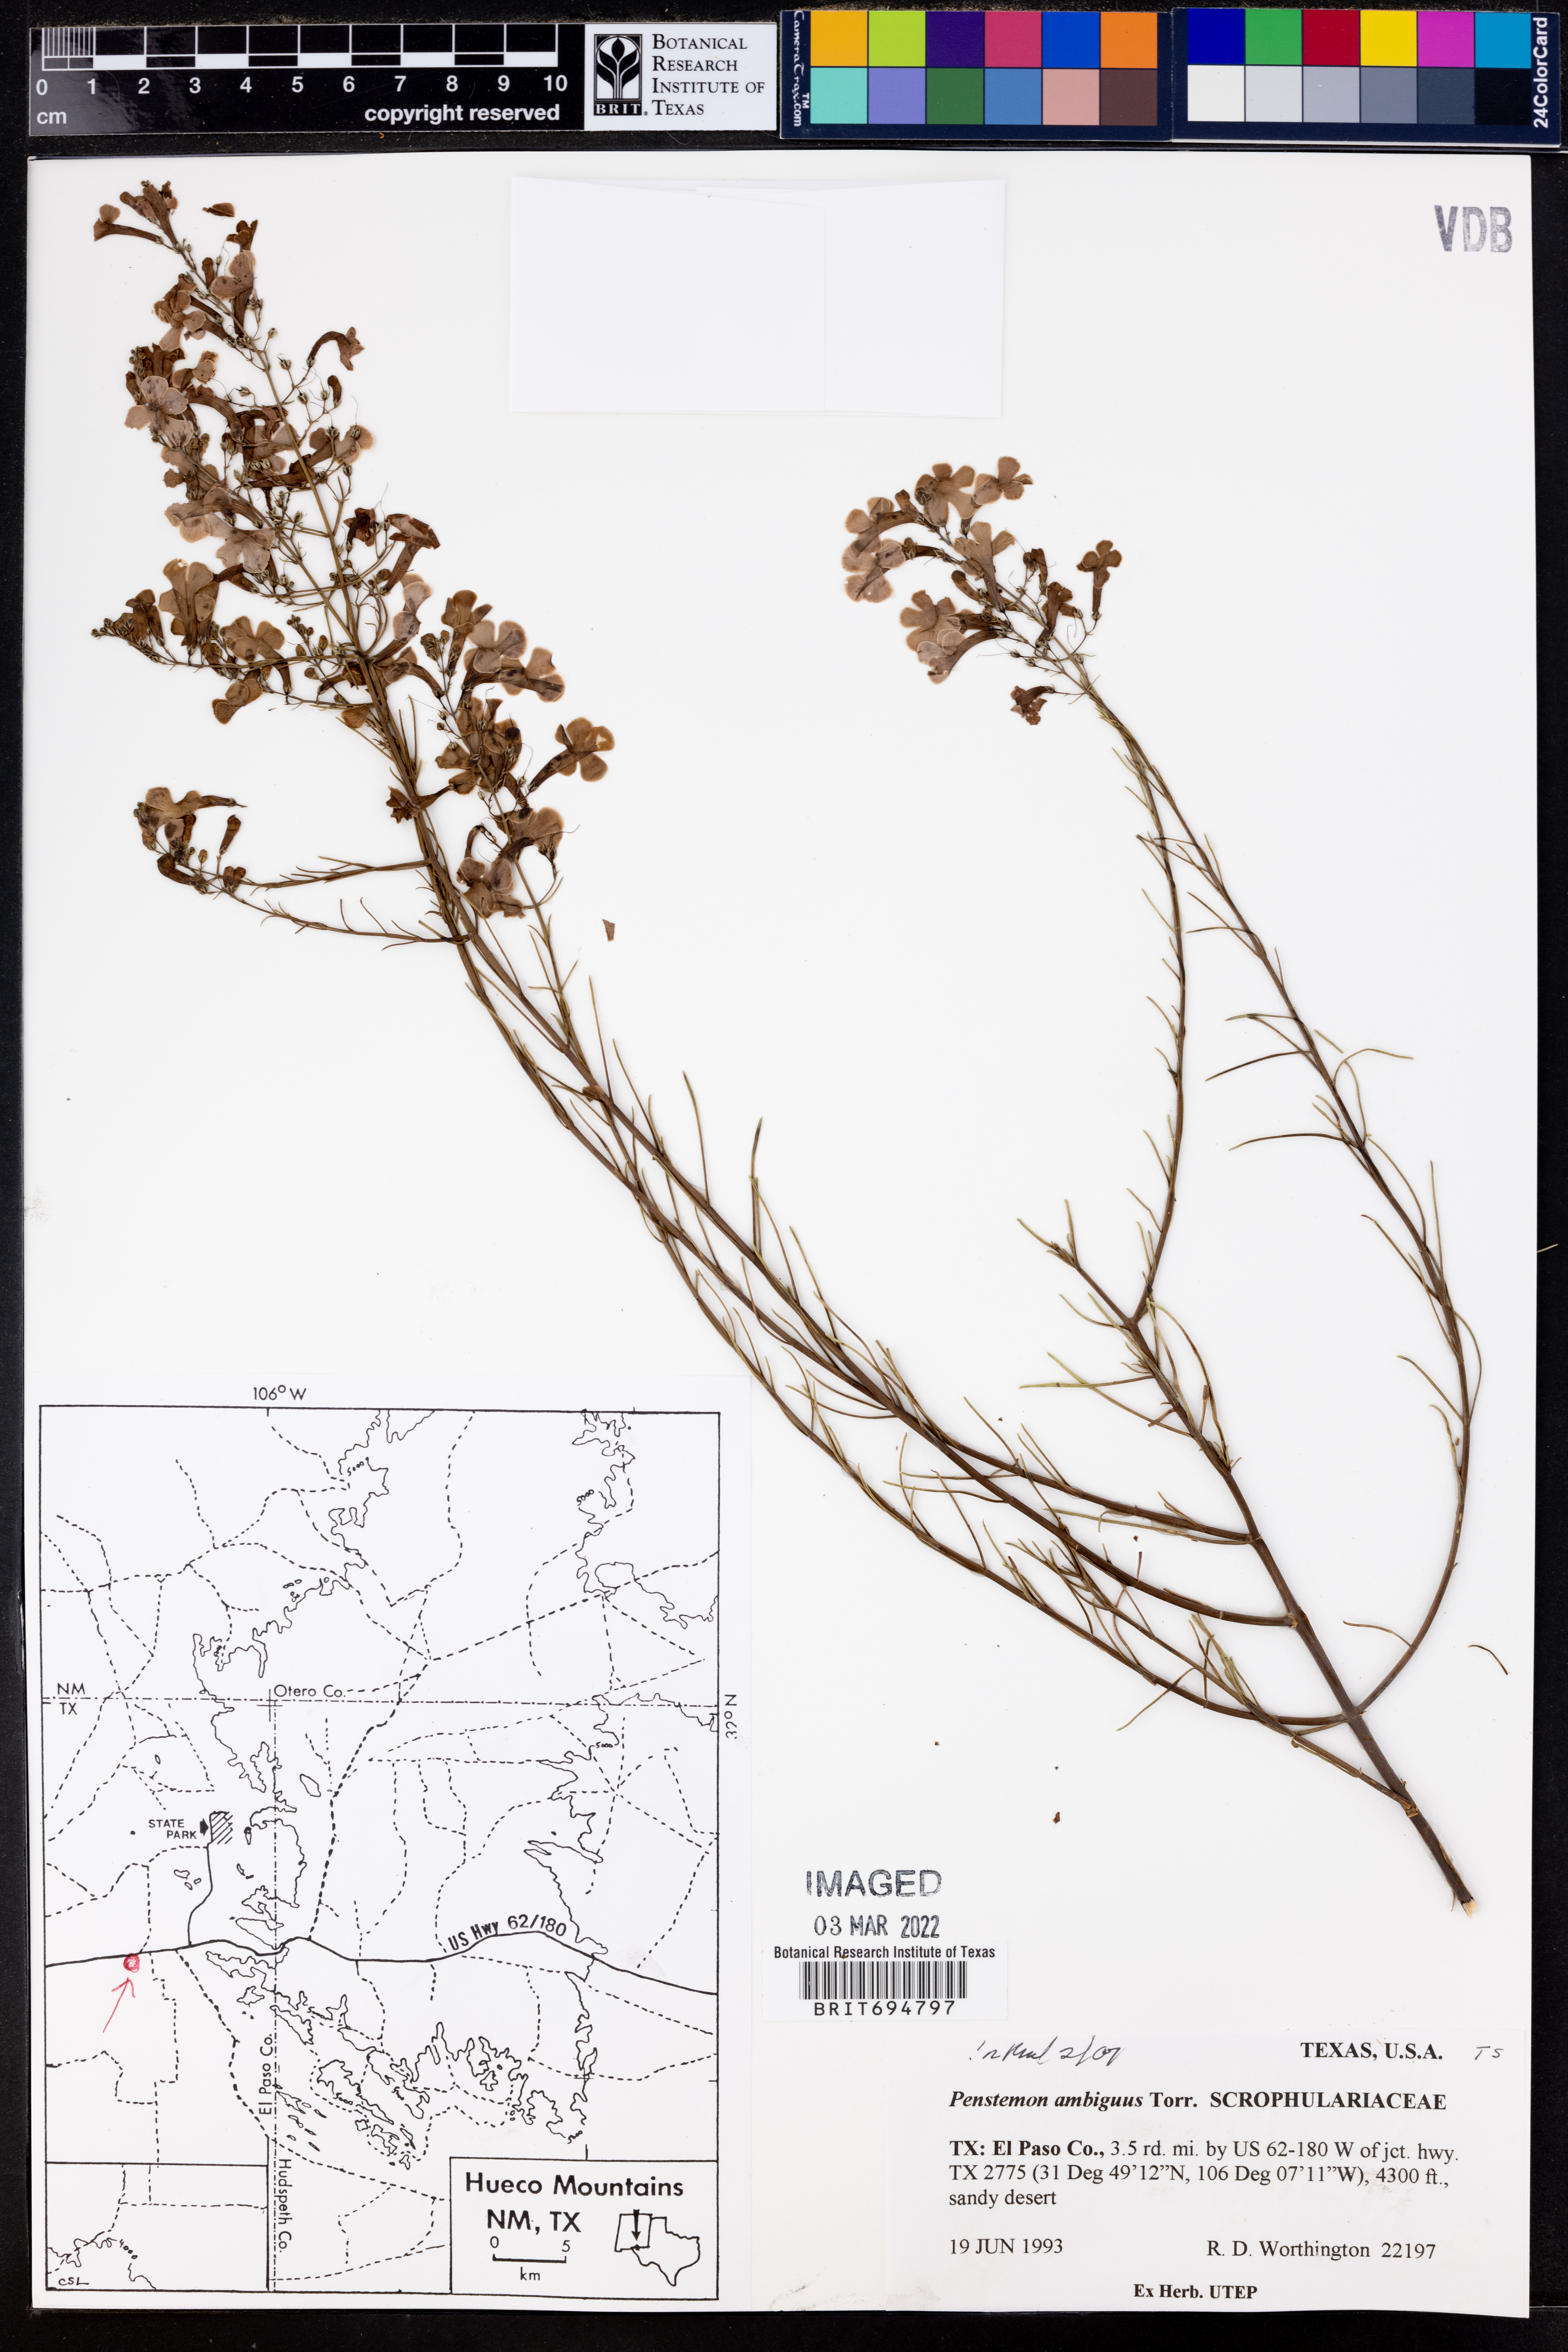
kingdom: Plantae
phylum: Tracheophyta
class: Magnoliopsida
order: Lamiales
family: Plantaginaceae
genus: Penstemon
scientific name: Penstemon ambiguus
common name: Bush penstemon
